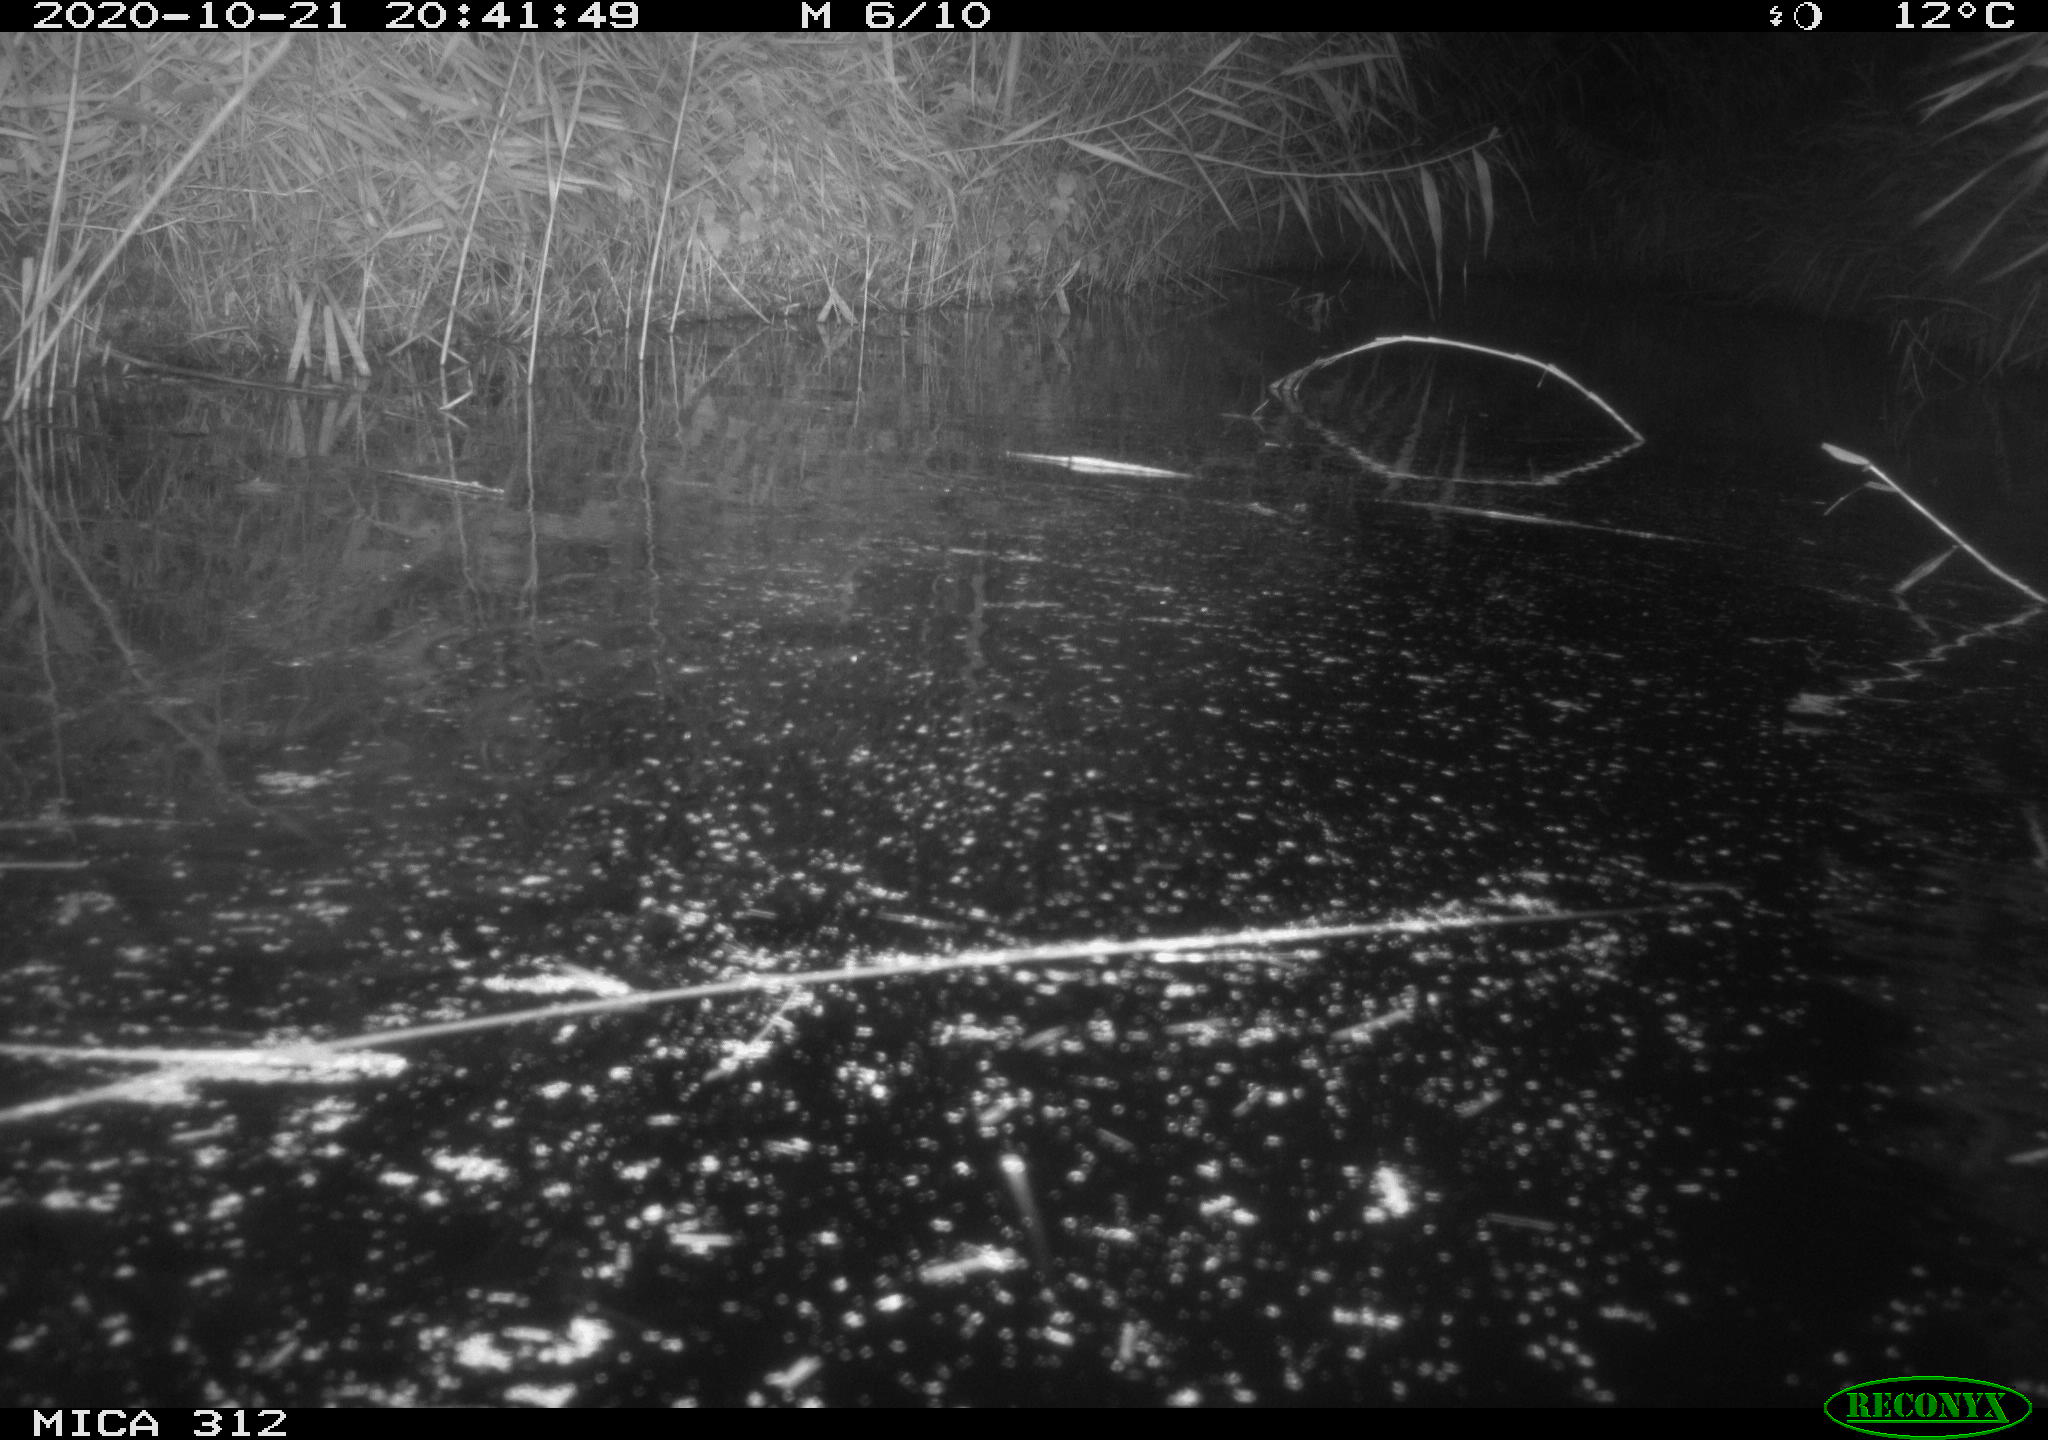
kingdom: Animalia
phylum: Chordata
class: Mammalia
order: Rodentia
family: Muridae
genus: Rattus
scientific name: Rattus norvegicus
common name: Brown rat
